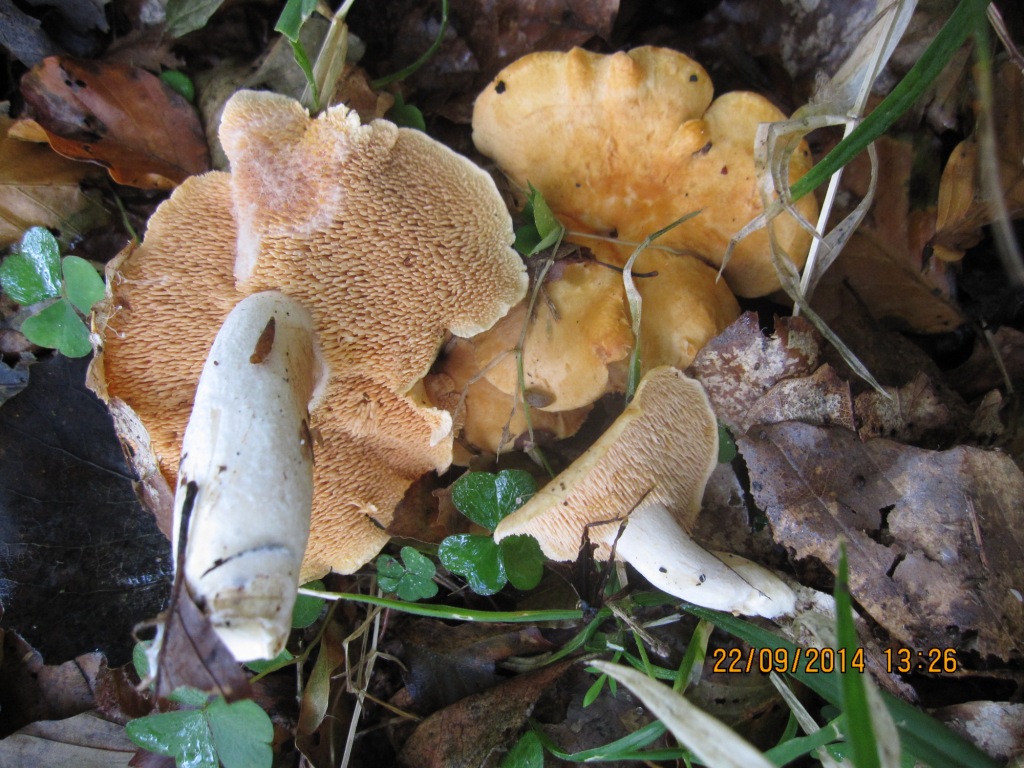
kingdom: Fungi
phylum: Basidiomycota
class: Agaricomycetes
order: Cantharellales
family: Hydnaceae
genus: Hydnum
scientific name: Hydnum ellipsosporum
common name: tandet pigsvamp
